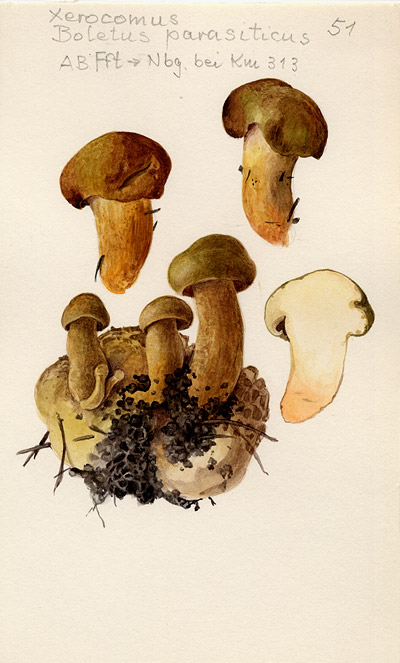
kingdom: Fungi
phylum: Basidiomycota
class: Agaricomycetes
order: Boletales
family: Boletaceae
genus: Pseudoboletus
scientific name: Pseudoboletus parasiticus
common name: Parasitic bolete
